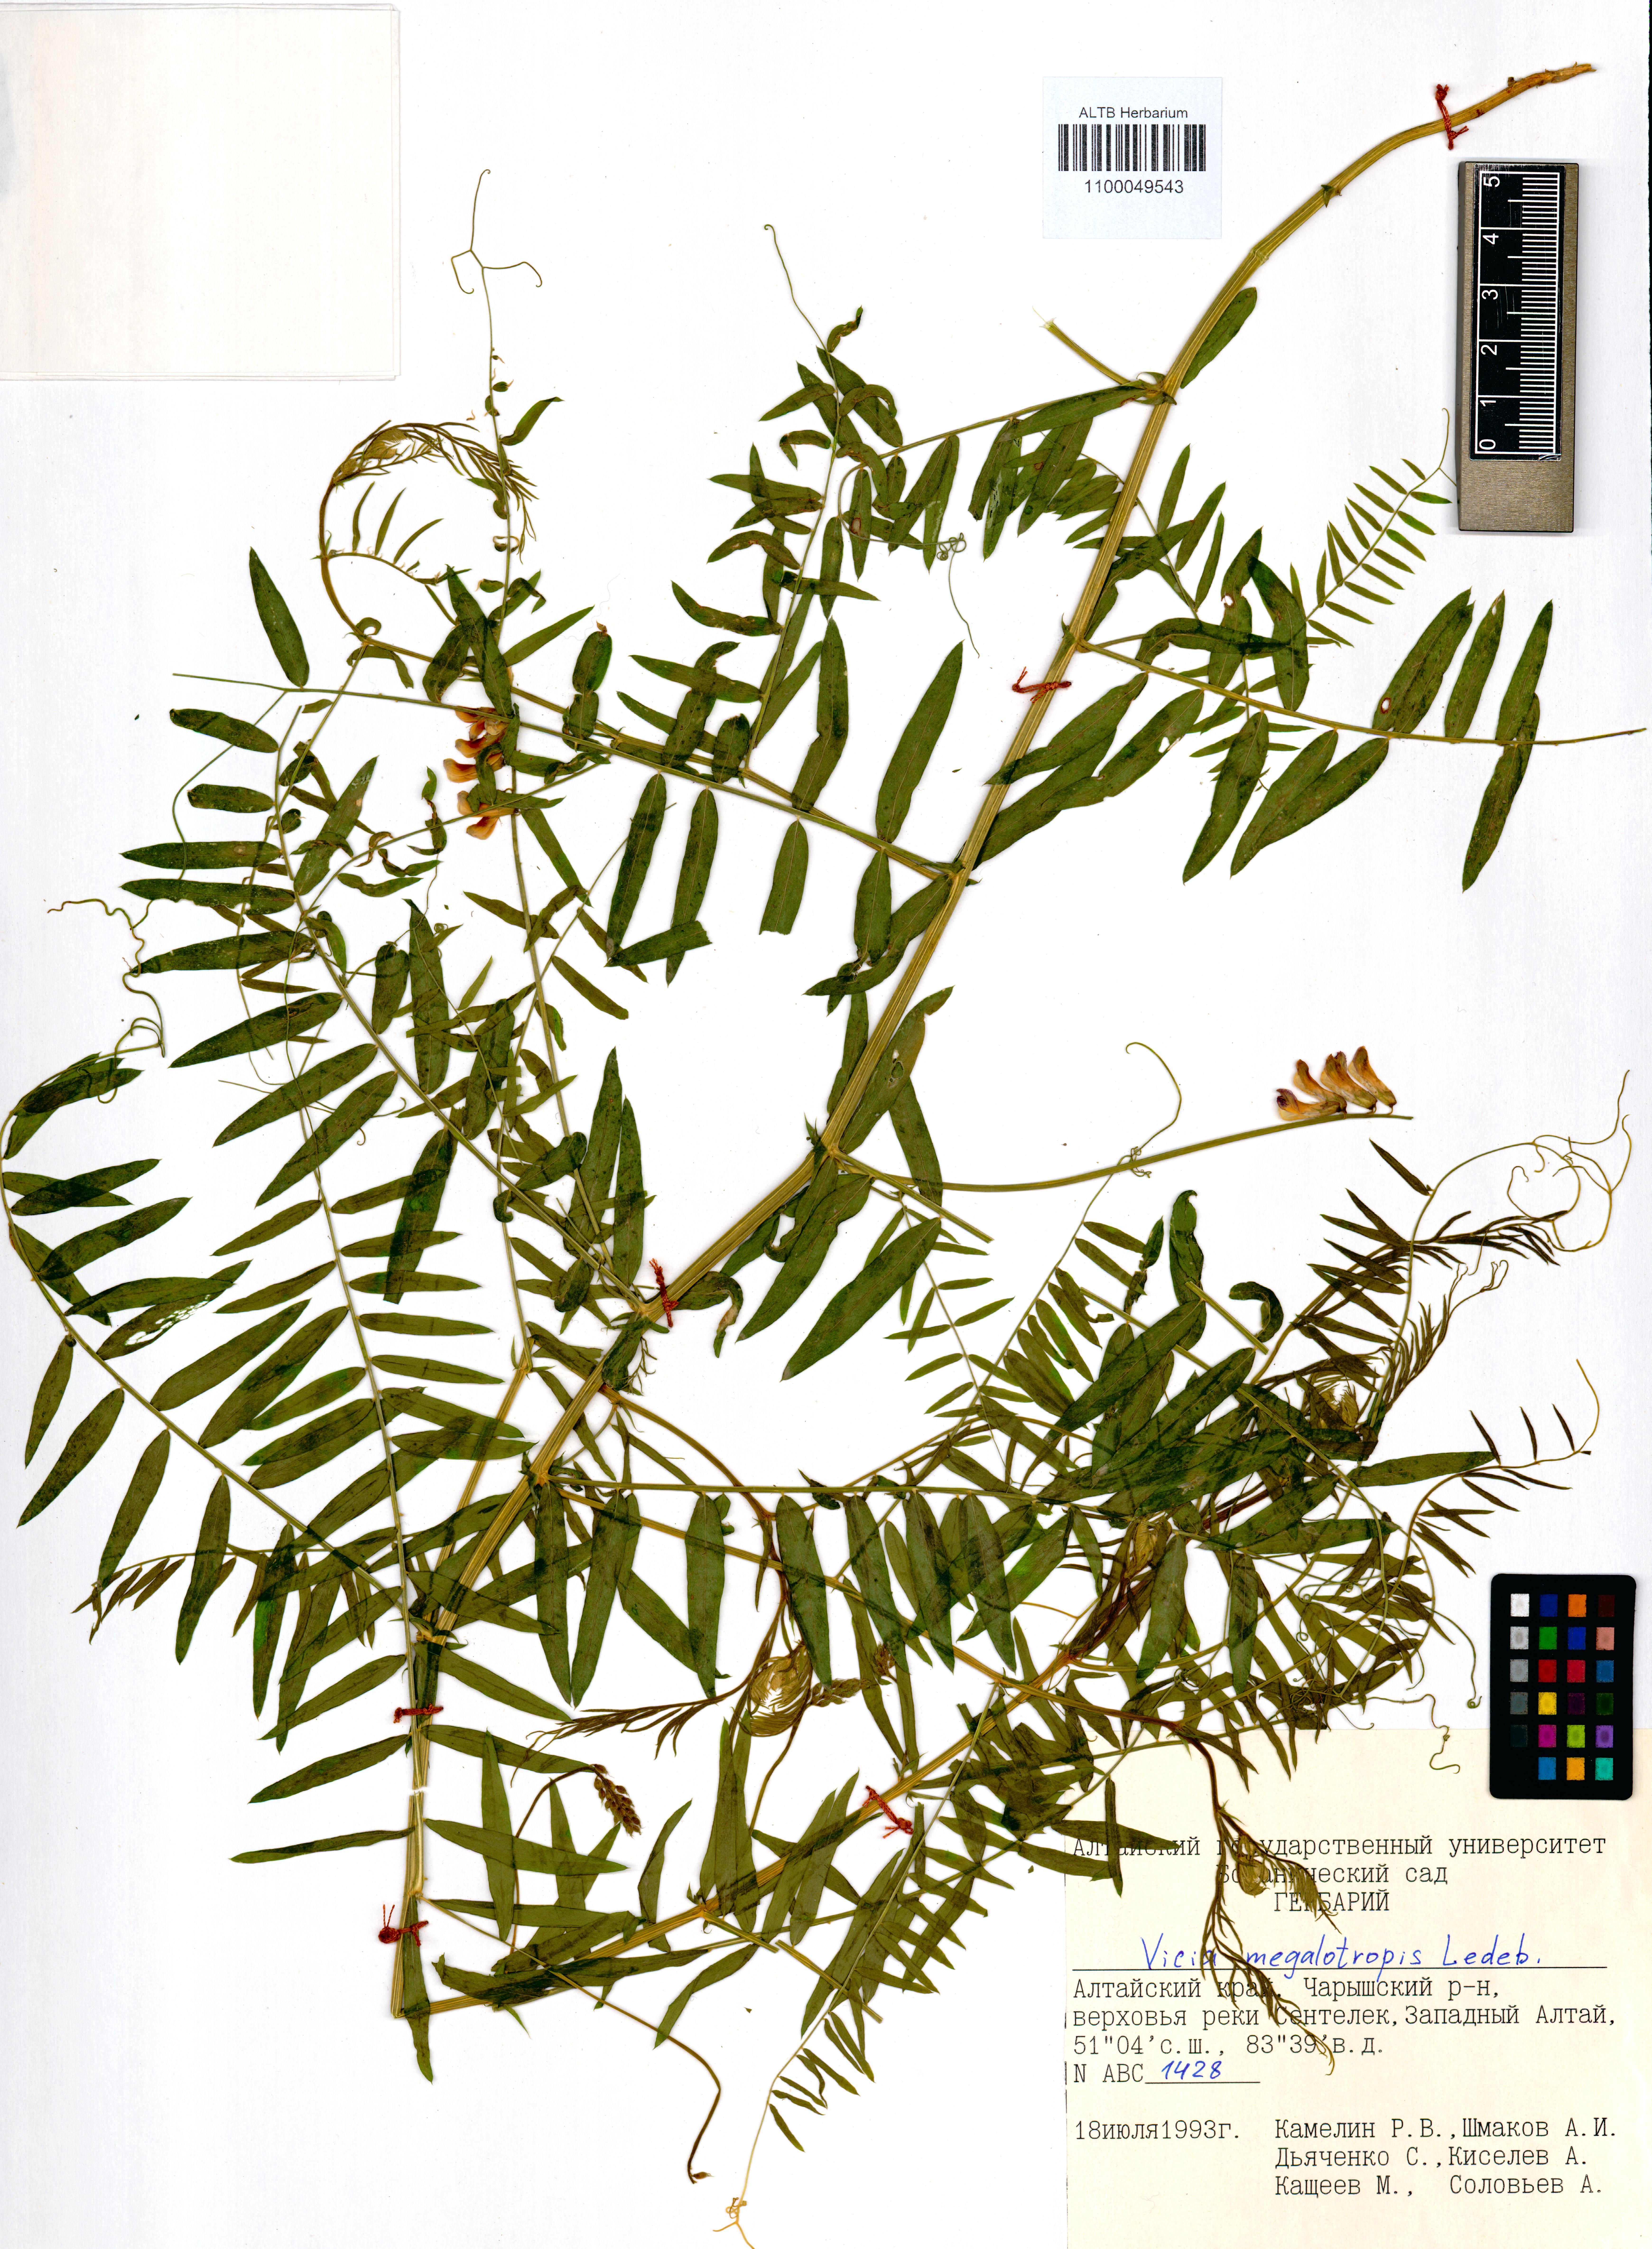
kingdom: Plantae
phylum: Tracheophyta
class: Magnoliopsida
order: Fabales
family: Fabaceae
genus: Vicia
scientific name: Vicia megalotropis
